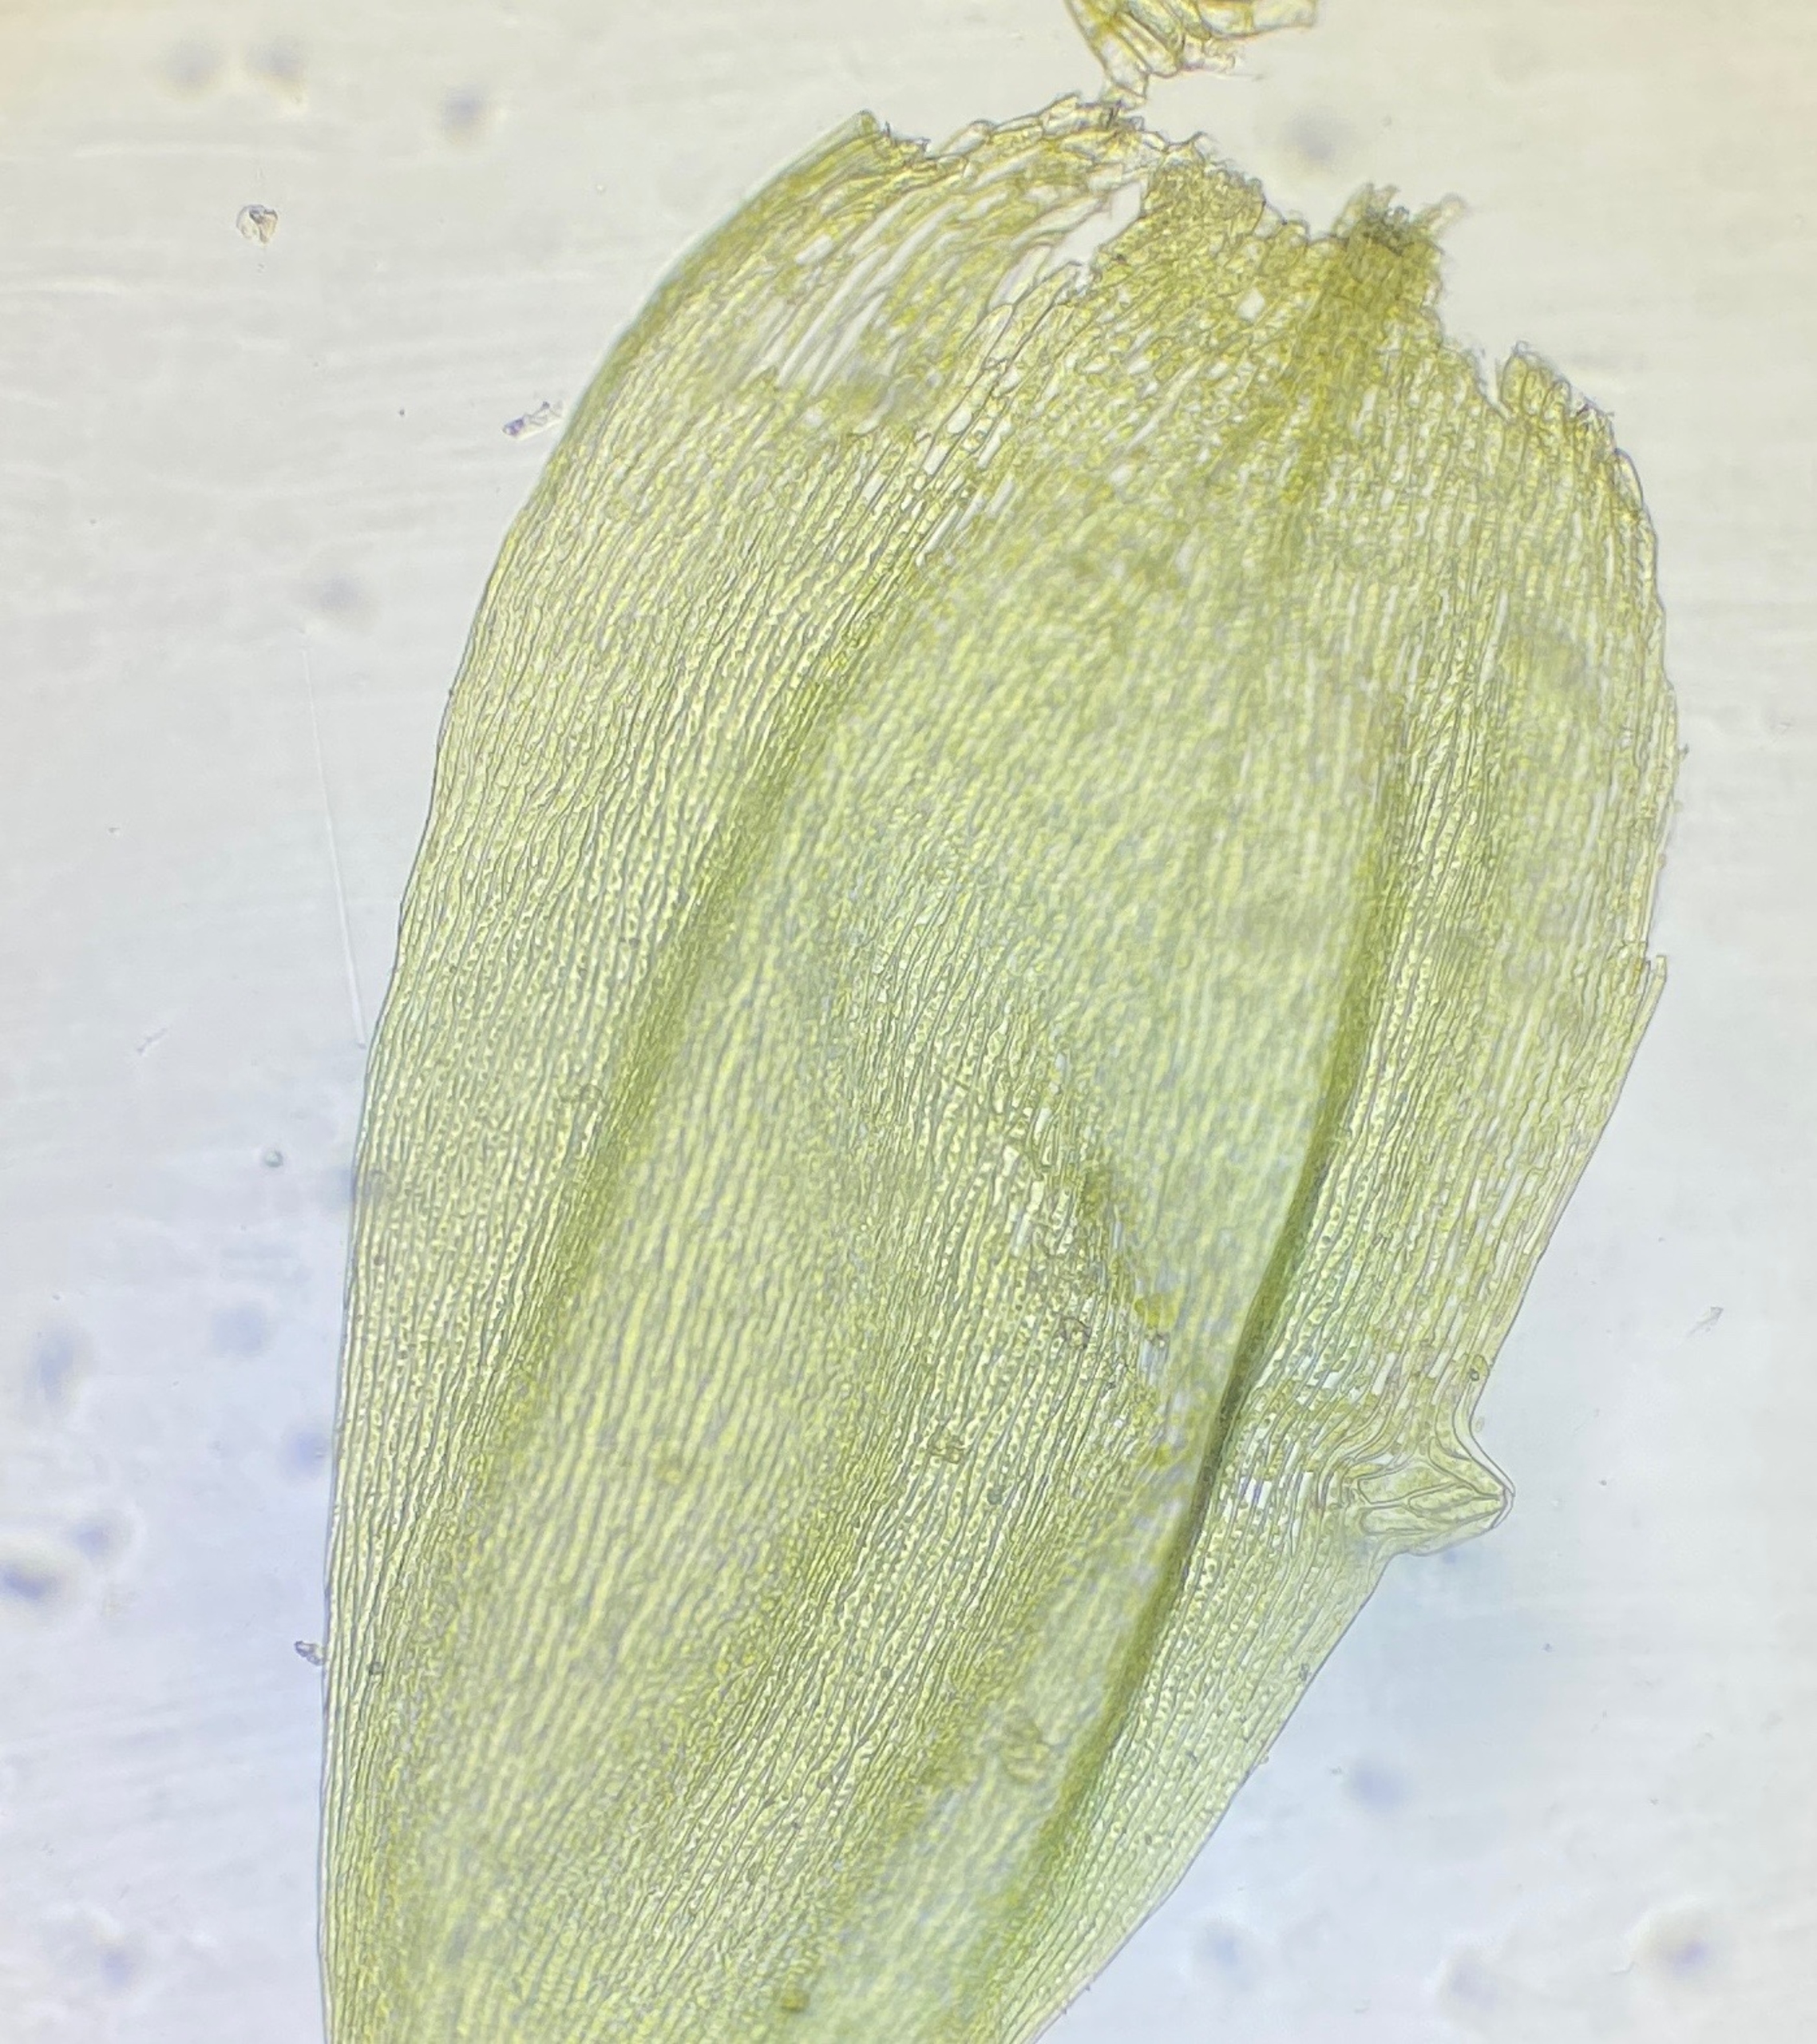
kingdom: Plantae
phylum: Bryophyta
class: Bryopsida
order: Hypnales
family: Plagiotheciaceae
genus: Plagiothecium
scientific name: Plagiothecium cavifolium
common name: Hulbladet tæppemos
